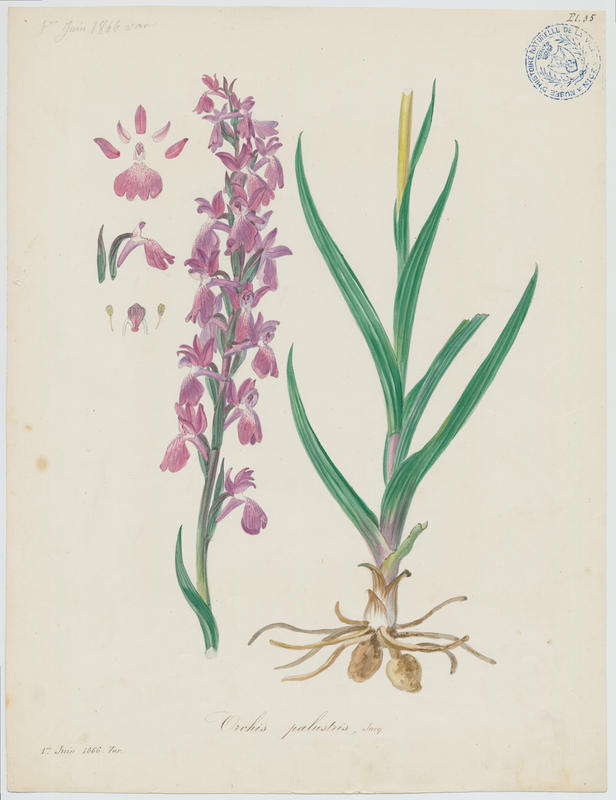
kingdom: Plantae
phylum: Tracheophyta
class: Liliopsida
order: Asparagales
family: Orchidaceae
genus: Anacamptis
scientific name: Anacamptis palustris
